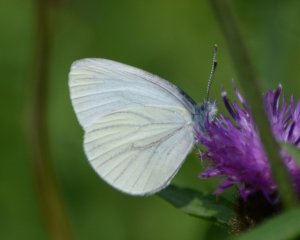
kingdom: Animalia
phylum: Arthropoda
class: Insecta
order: Lepidoptera
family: Pieridae
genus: Pieris
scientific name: Pieris oleracea
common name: Mustard White
